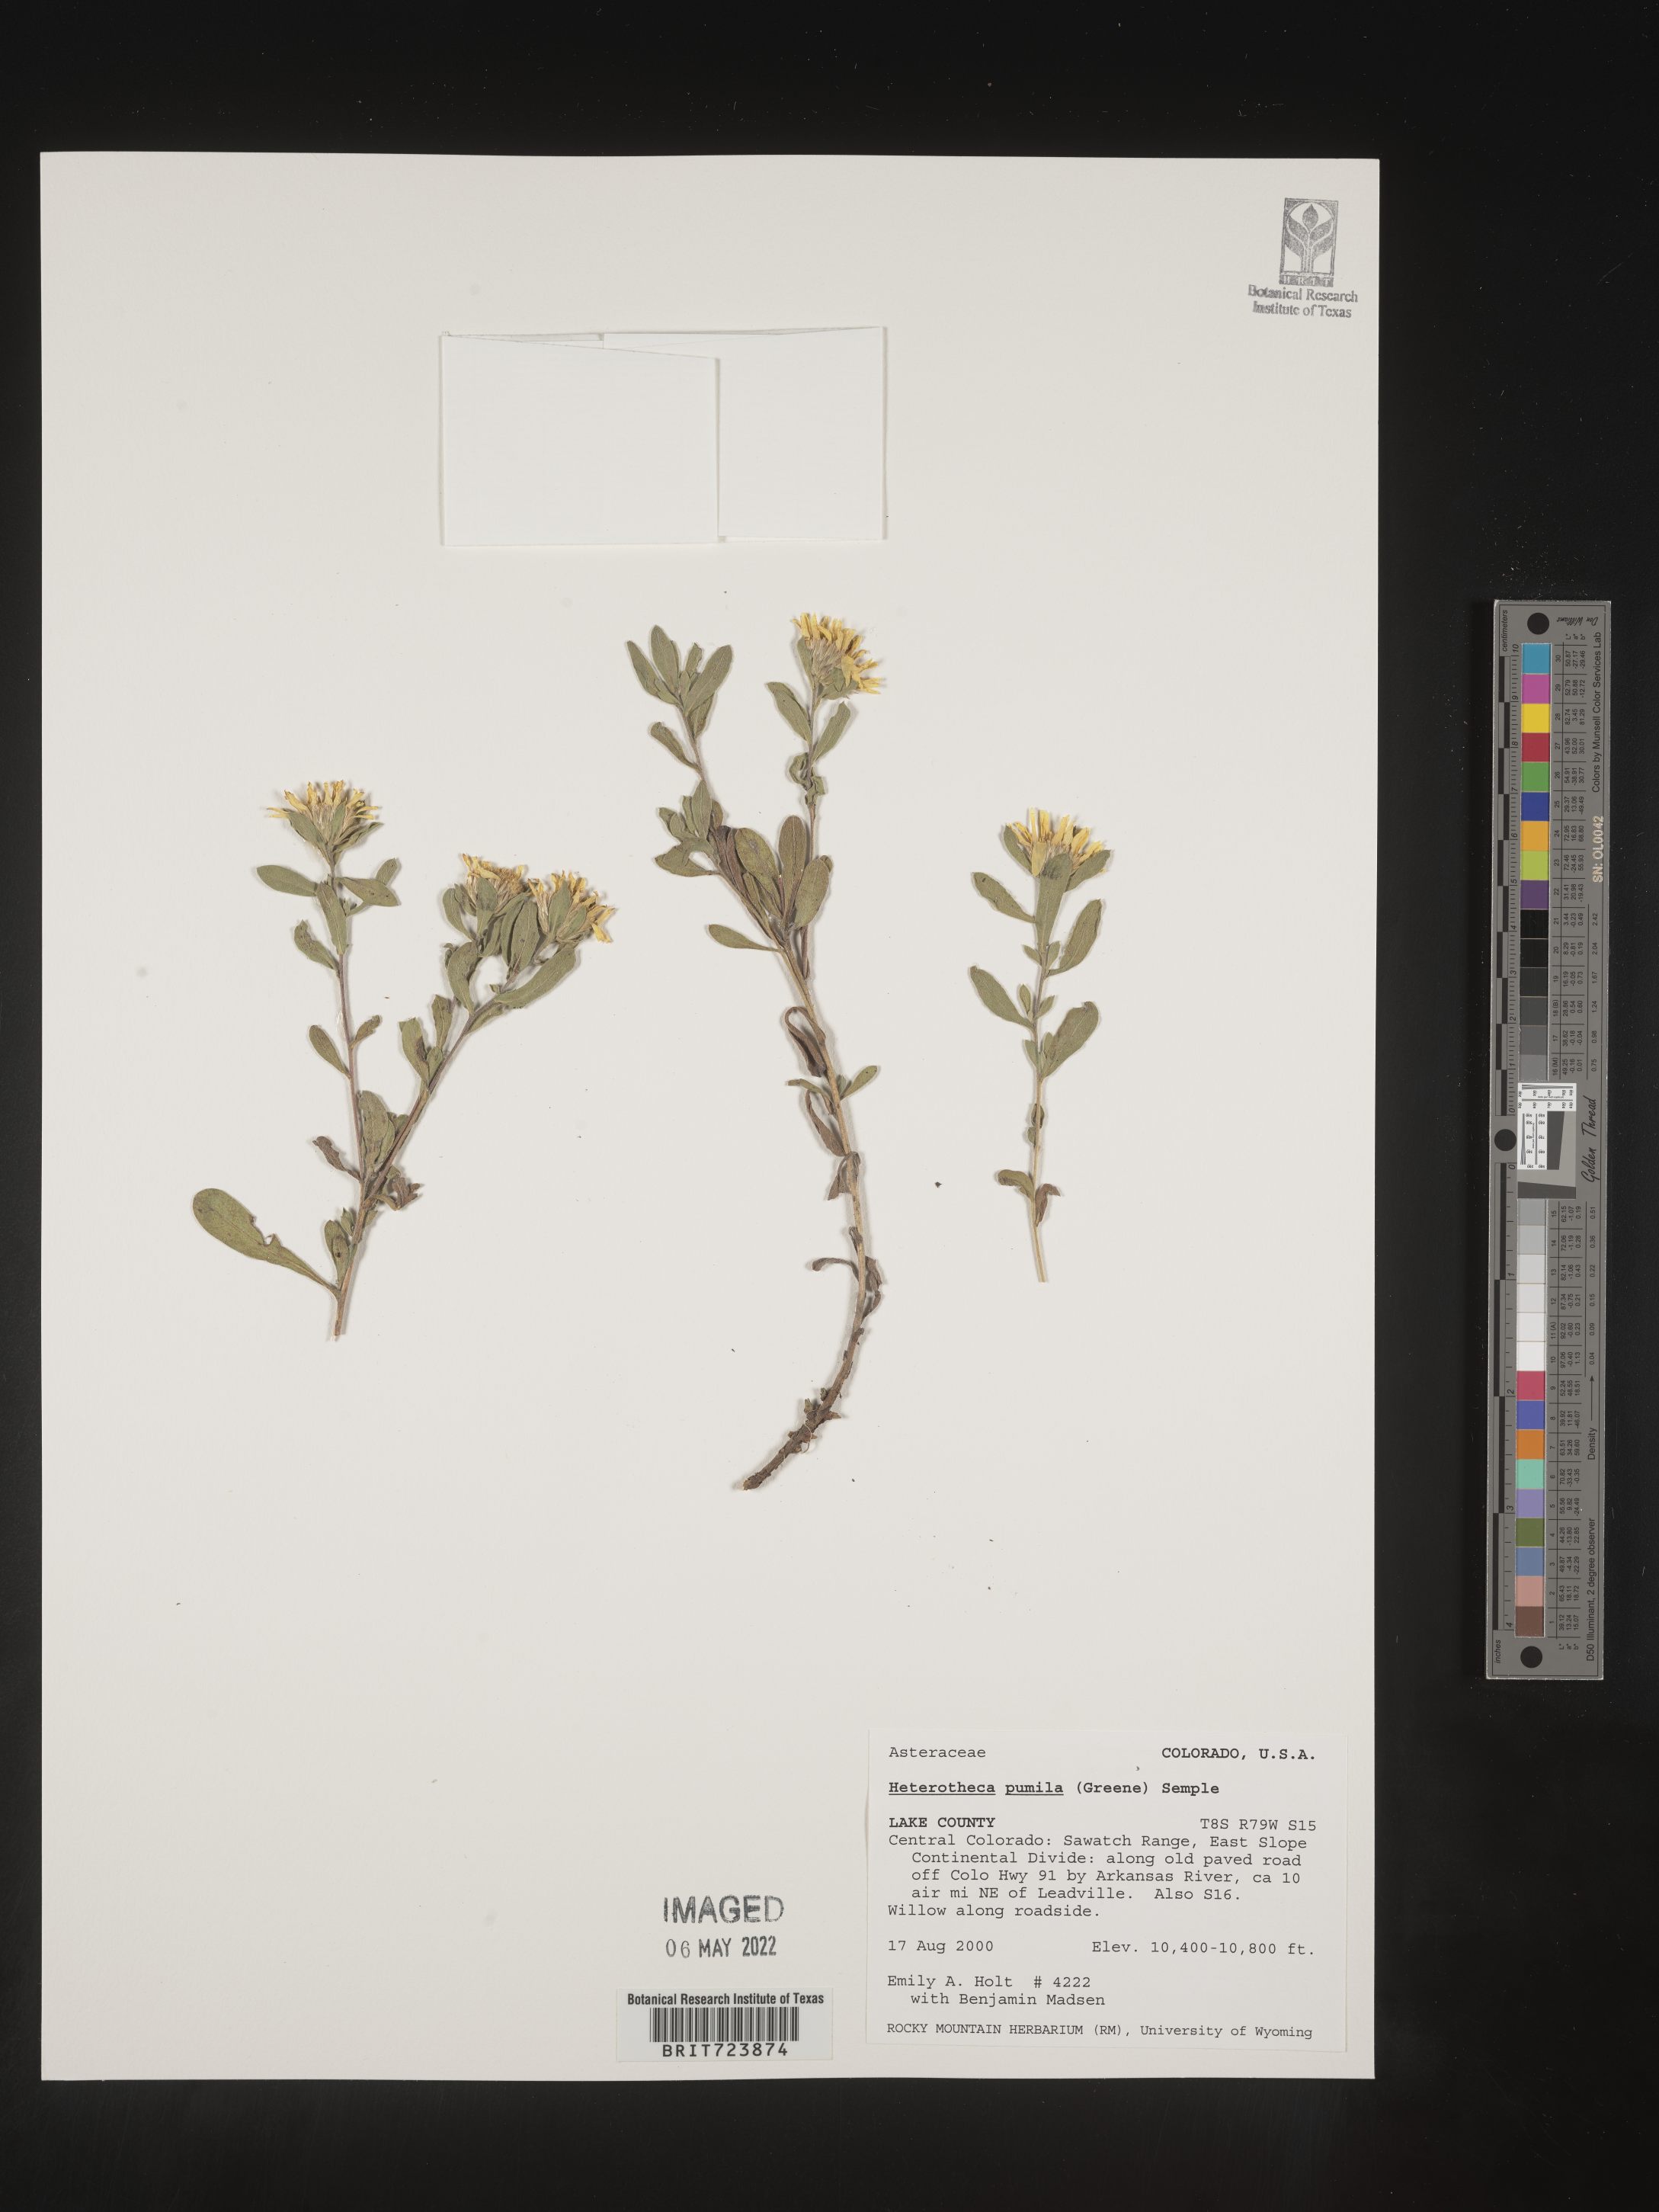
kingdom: Plantae
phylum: Tracheophyta
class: Magnoliopsida
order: Asterales
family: Asteraceae
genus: Heterotheca
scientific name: Heterotheca pumila
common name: Alpine golden-aster
